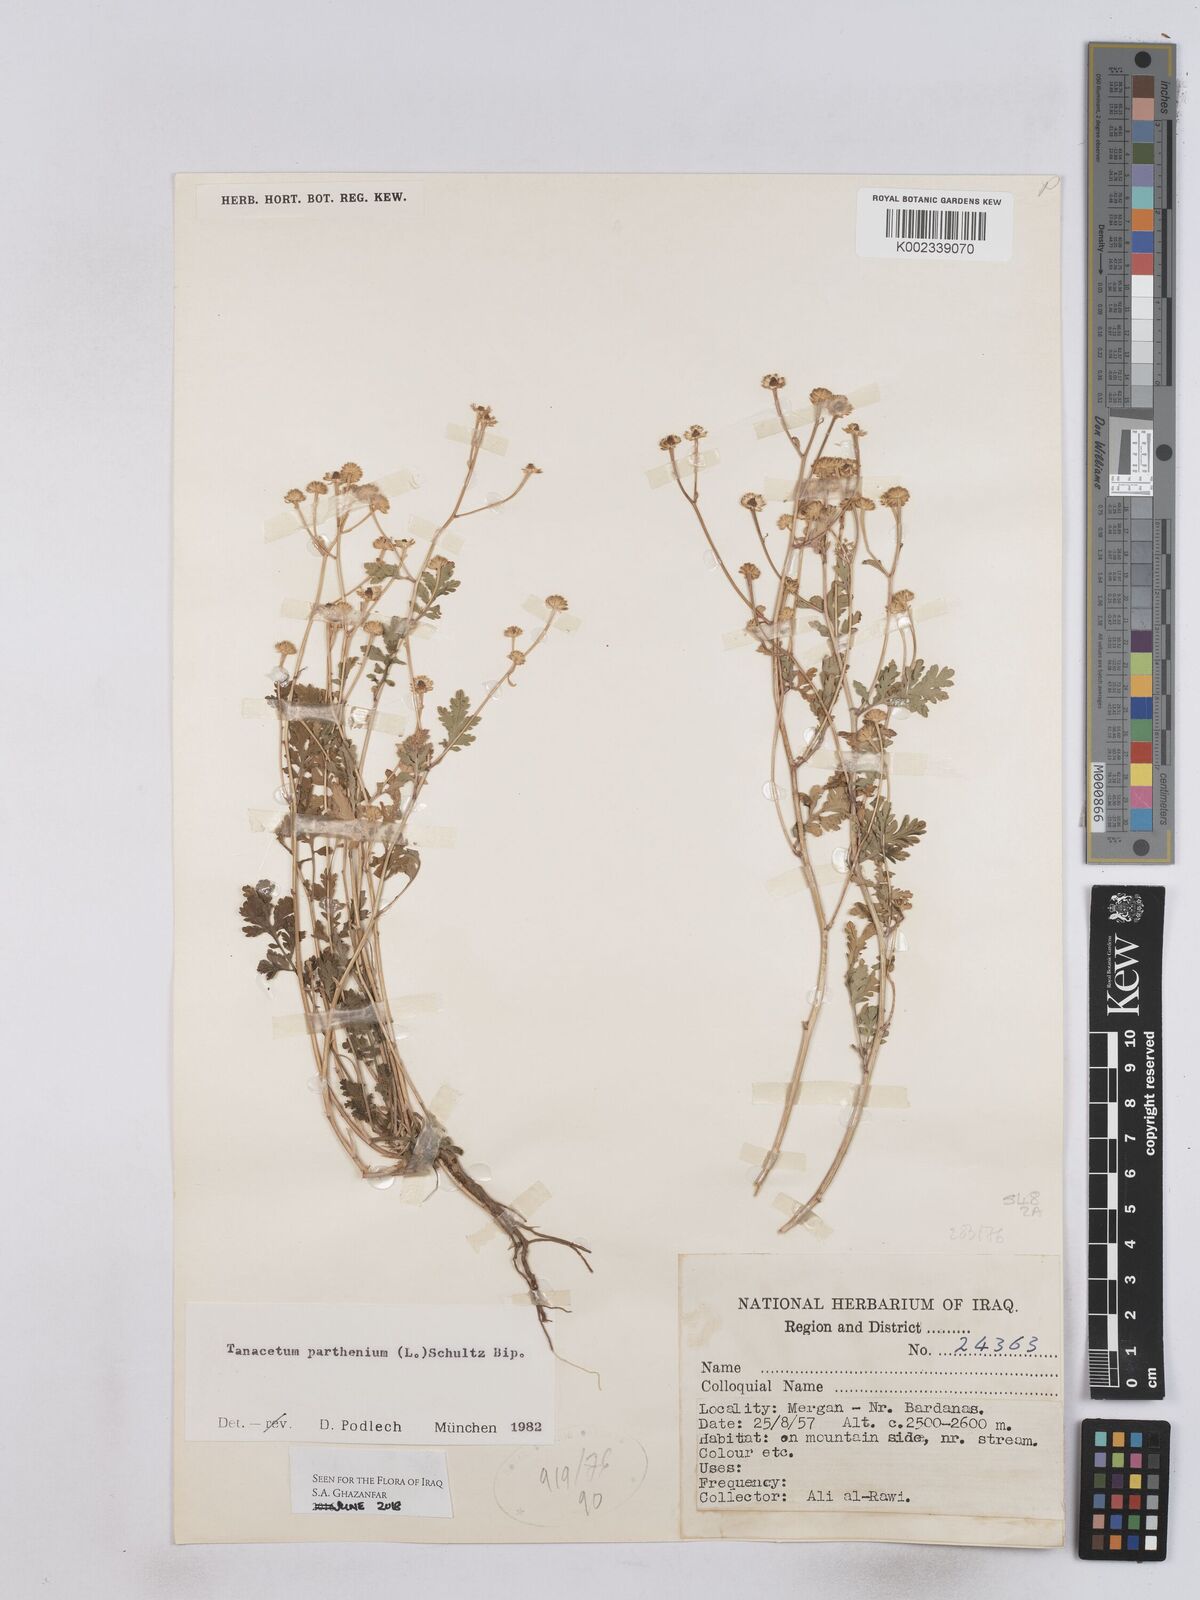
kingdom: Plantae
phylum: Tracheophyta
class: Magnoliopsida
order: Asterales
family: Asteraceae
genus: Tanacetum
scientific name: Tanacetum partheniifolium
